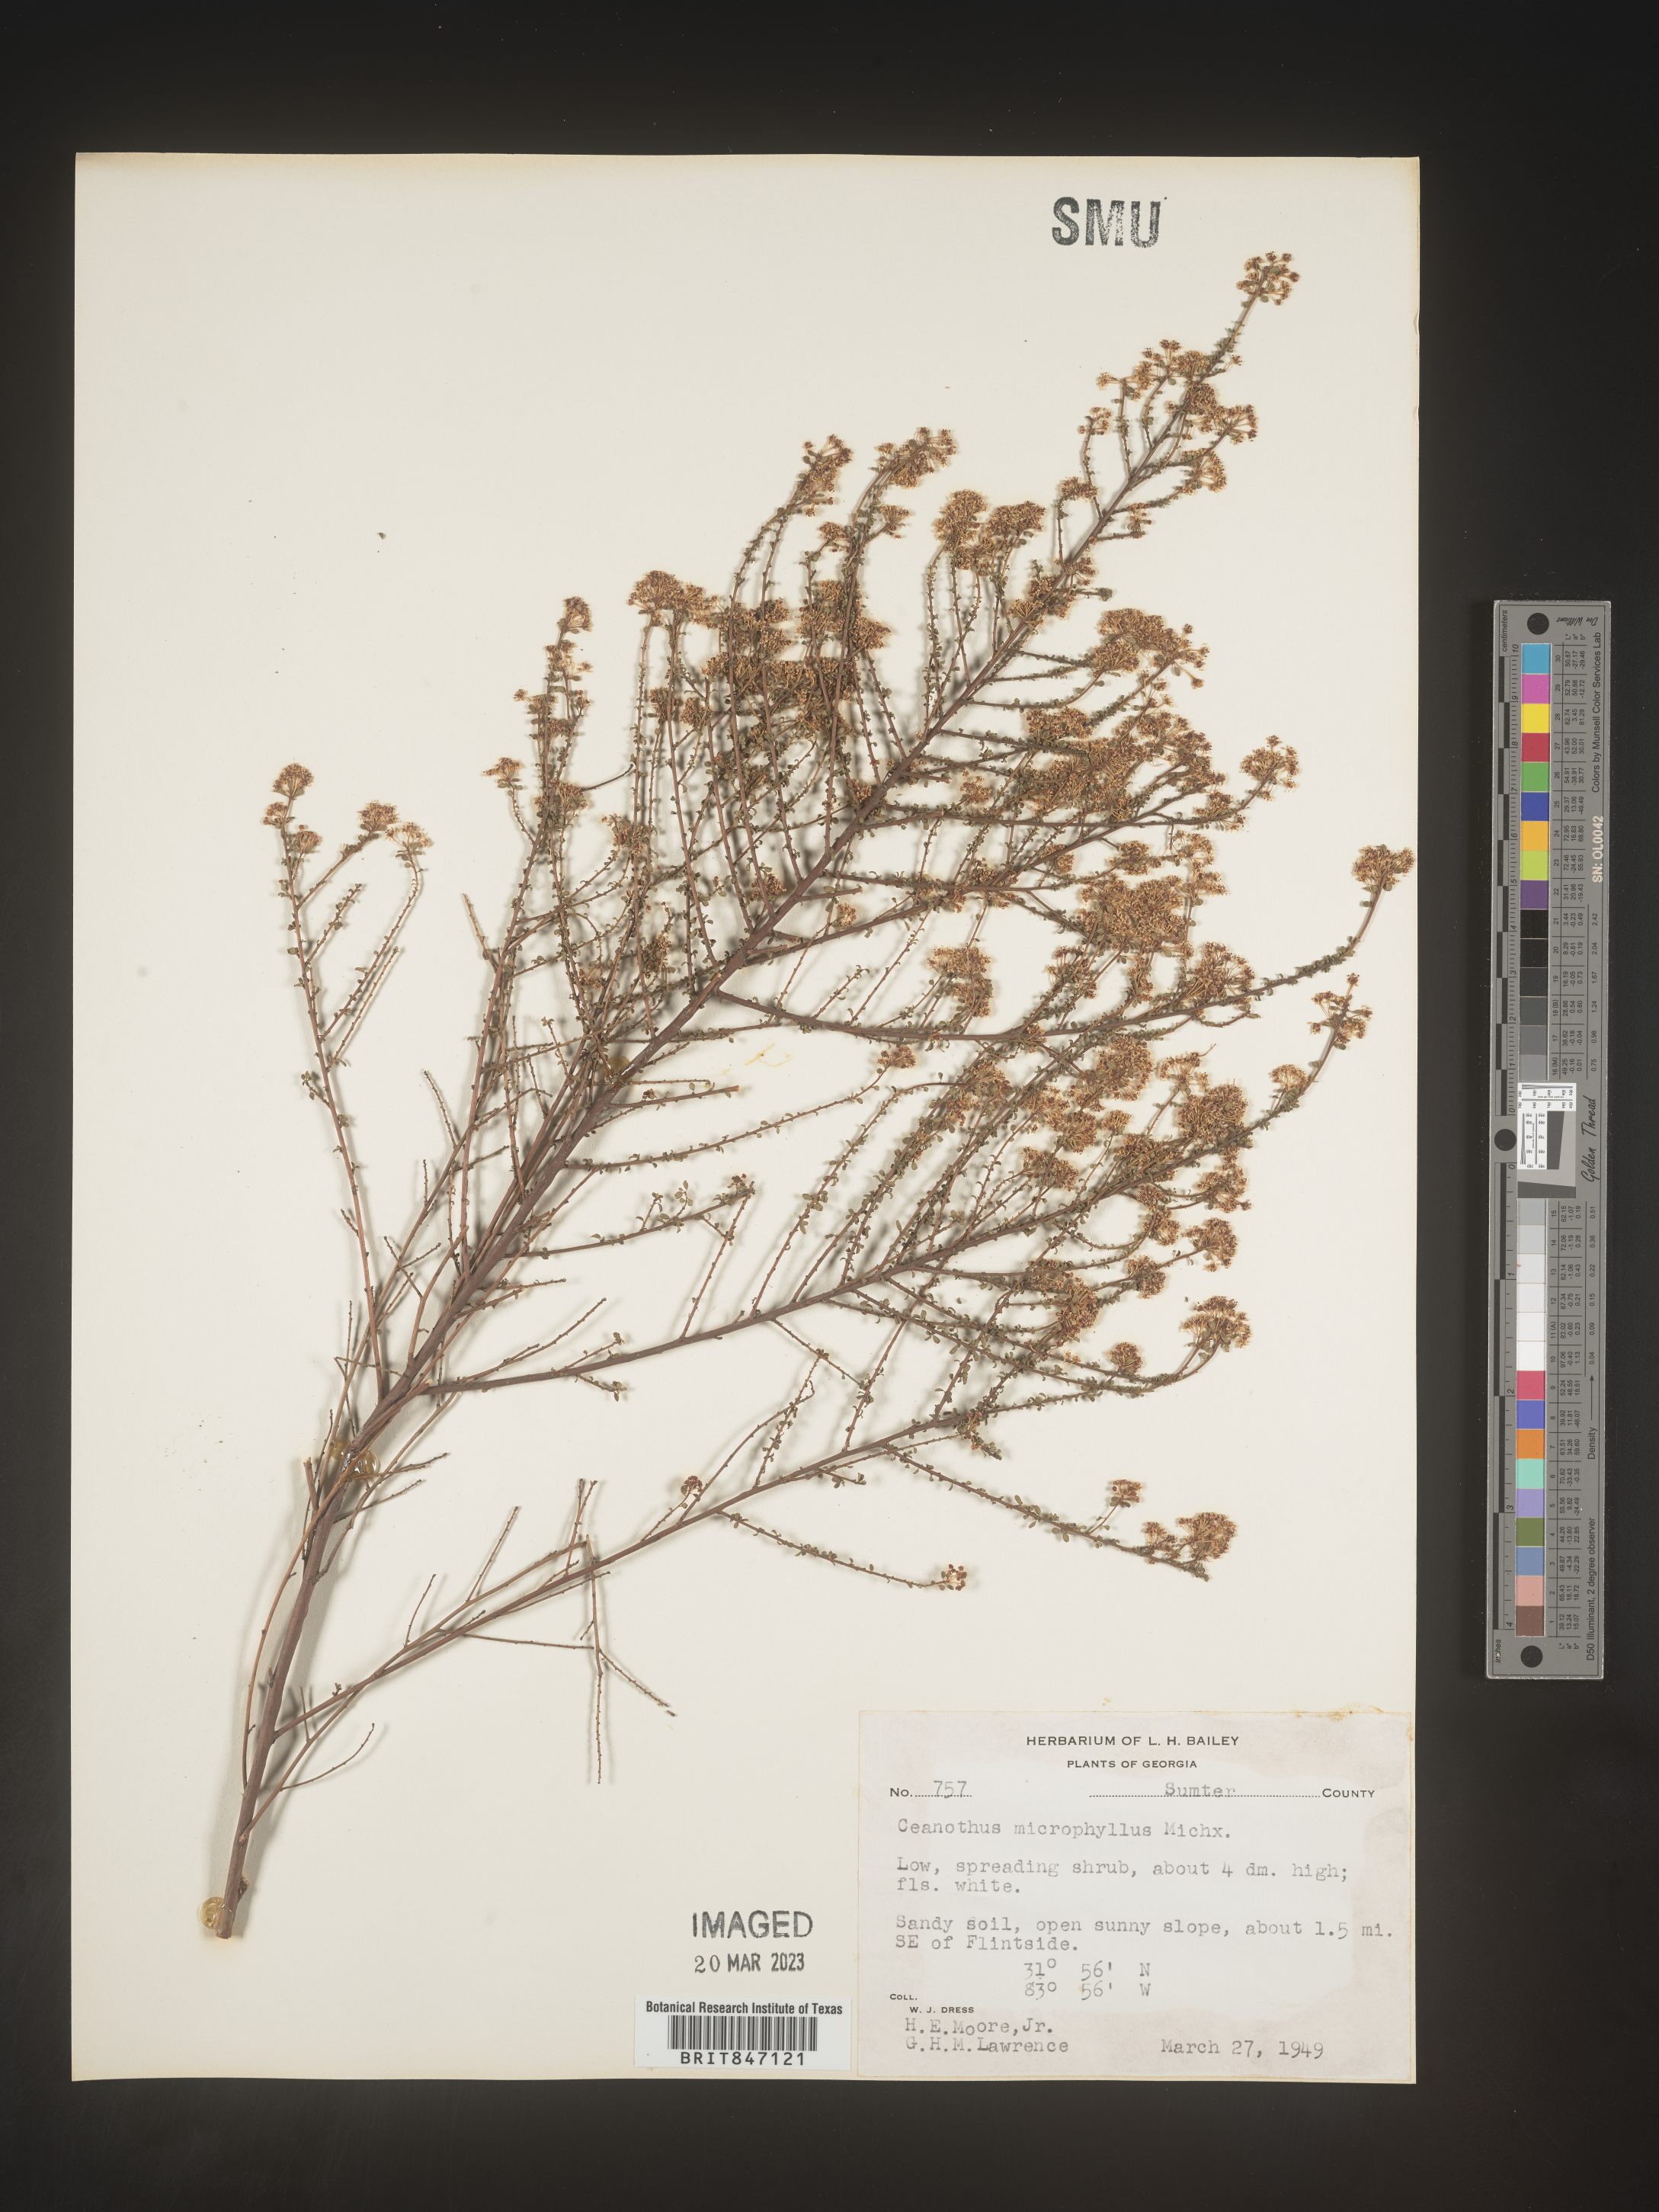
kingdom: Plantae
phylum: Tracheophyta
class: Magnoliopsida
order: Rosales
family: Rhamnaceae
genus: Ceanothus
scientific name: Ceanothus
